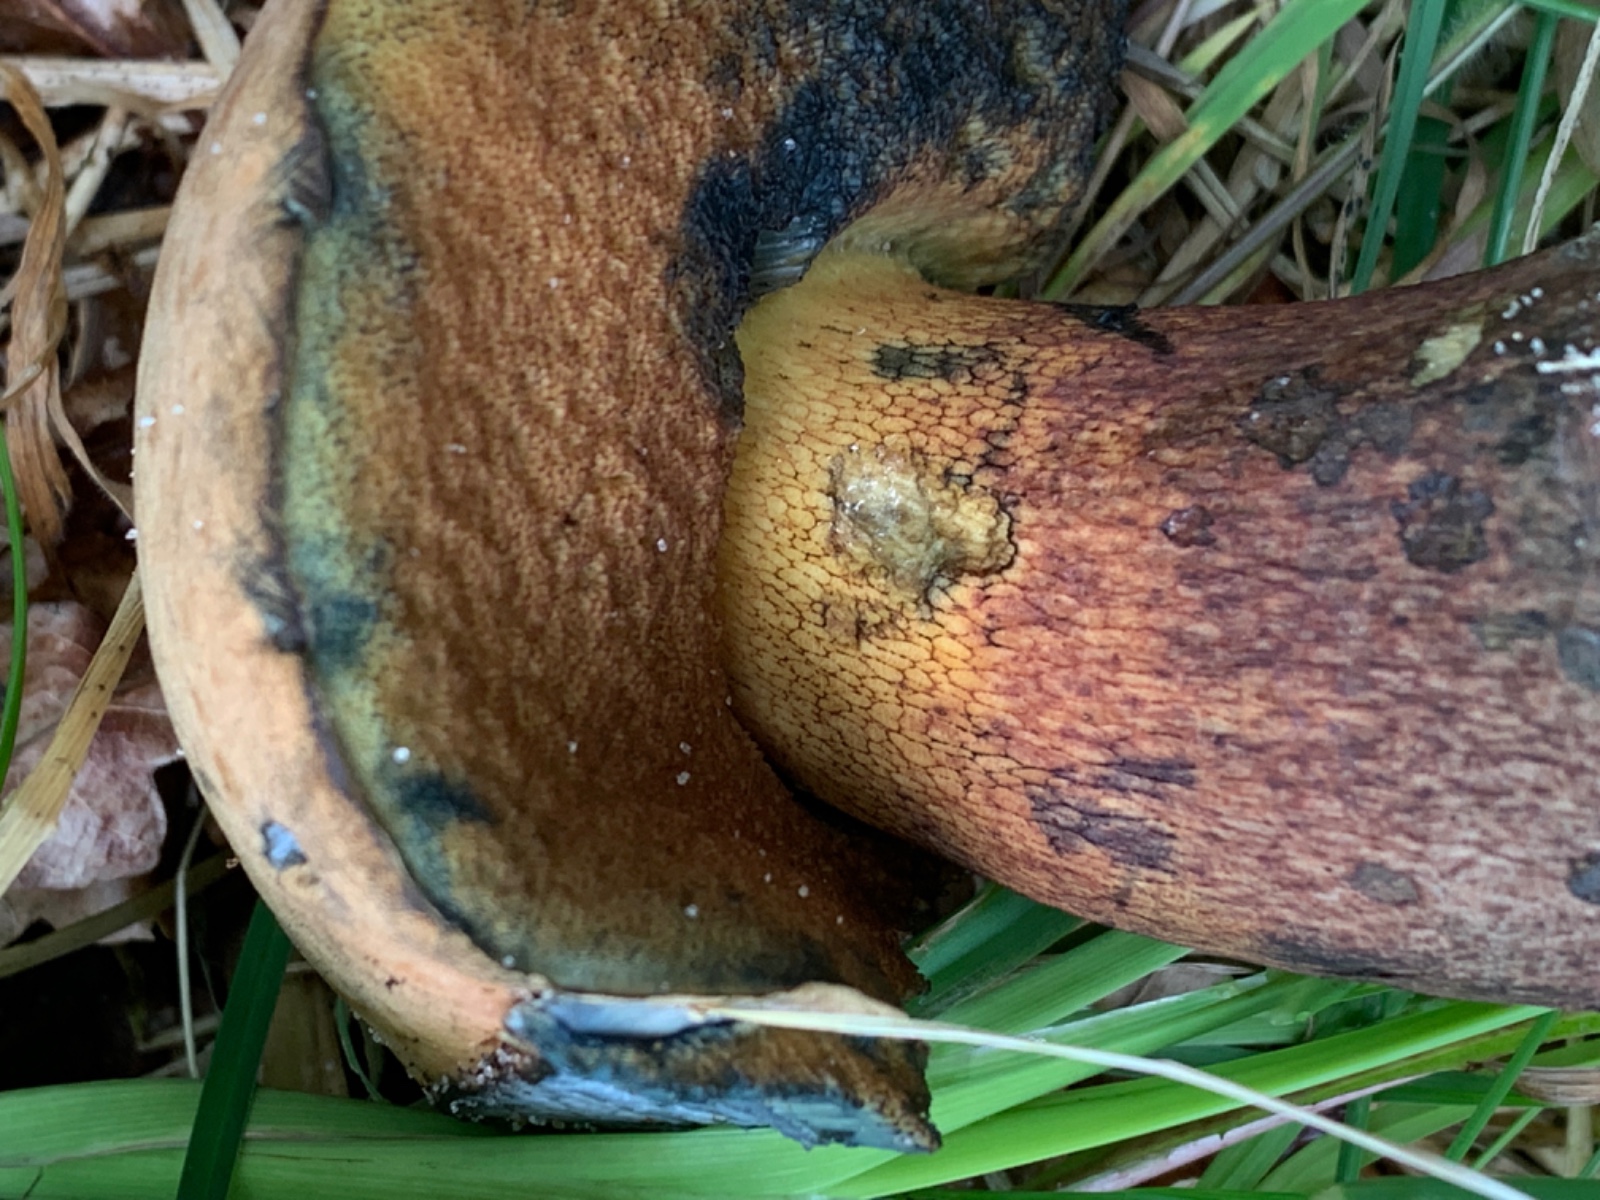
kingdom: Fungi
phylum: Basidiomycota
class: Agaricomycetes
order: Boletales
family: Boletaceae
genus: Suillellus
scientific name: Suillellus luridus
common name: netstokket indigorørhat
